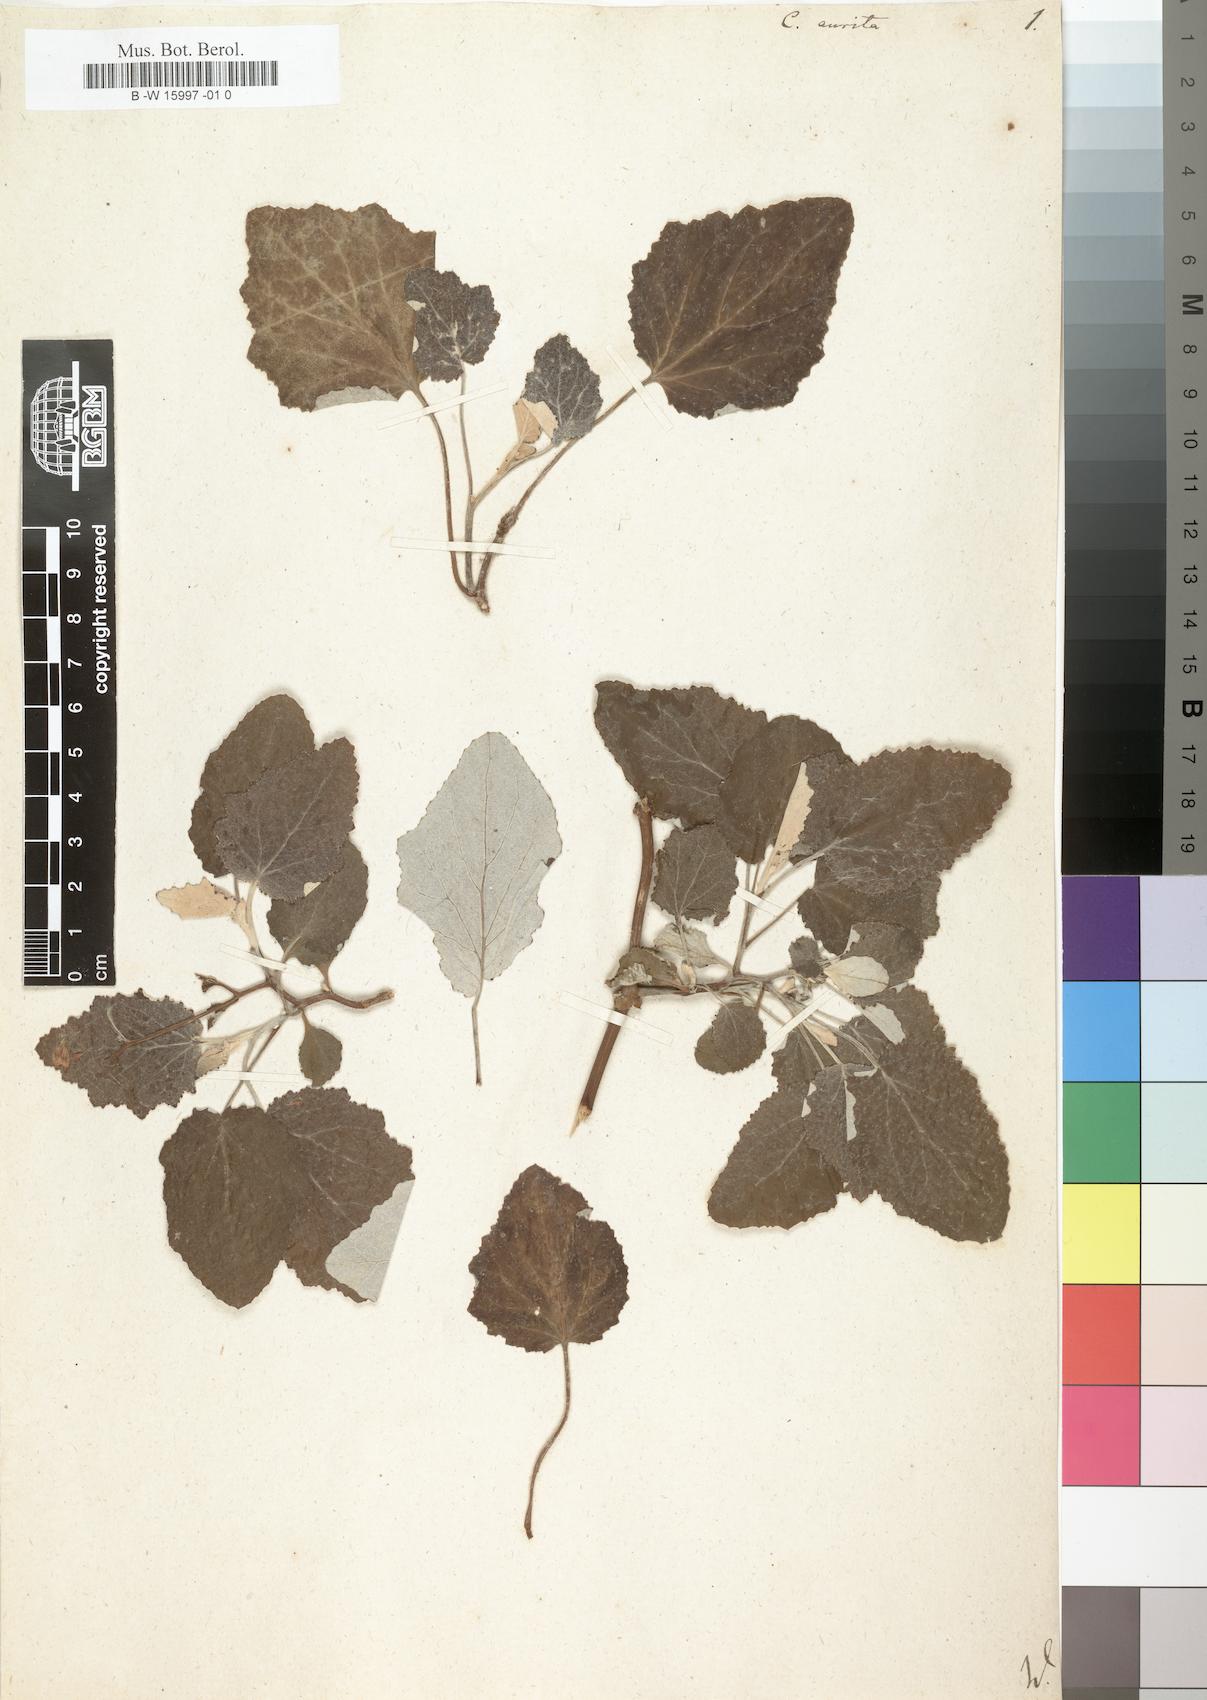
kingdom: Plantae
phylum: Tracheophyta
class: Magnoliopsida
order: Asterales
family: Asteraceae
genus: Pericallis
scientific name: Pericallis lanata
